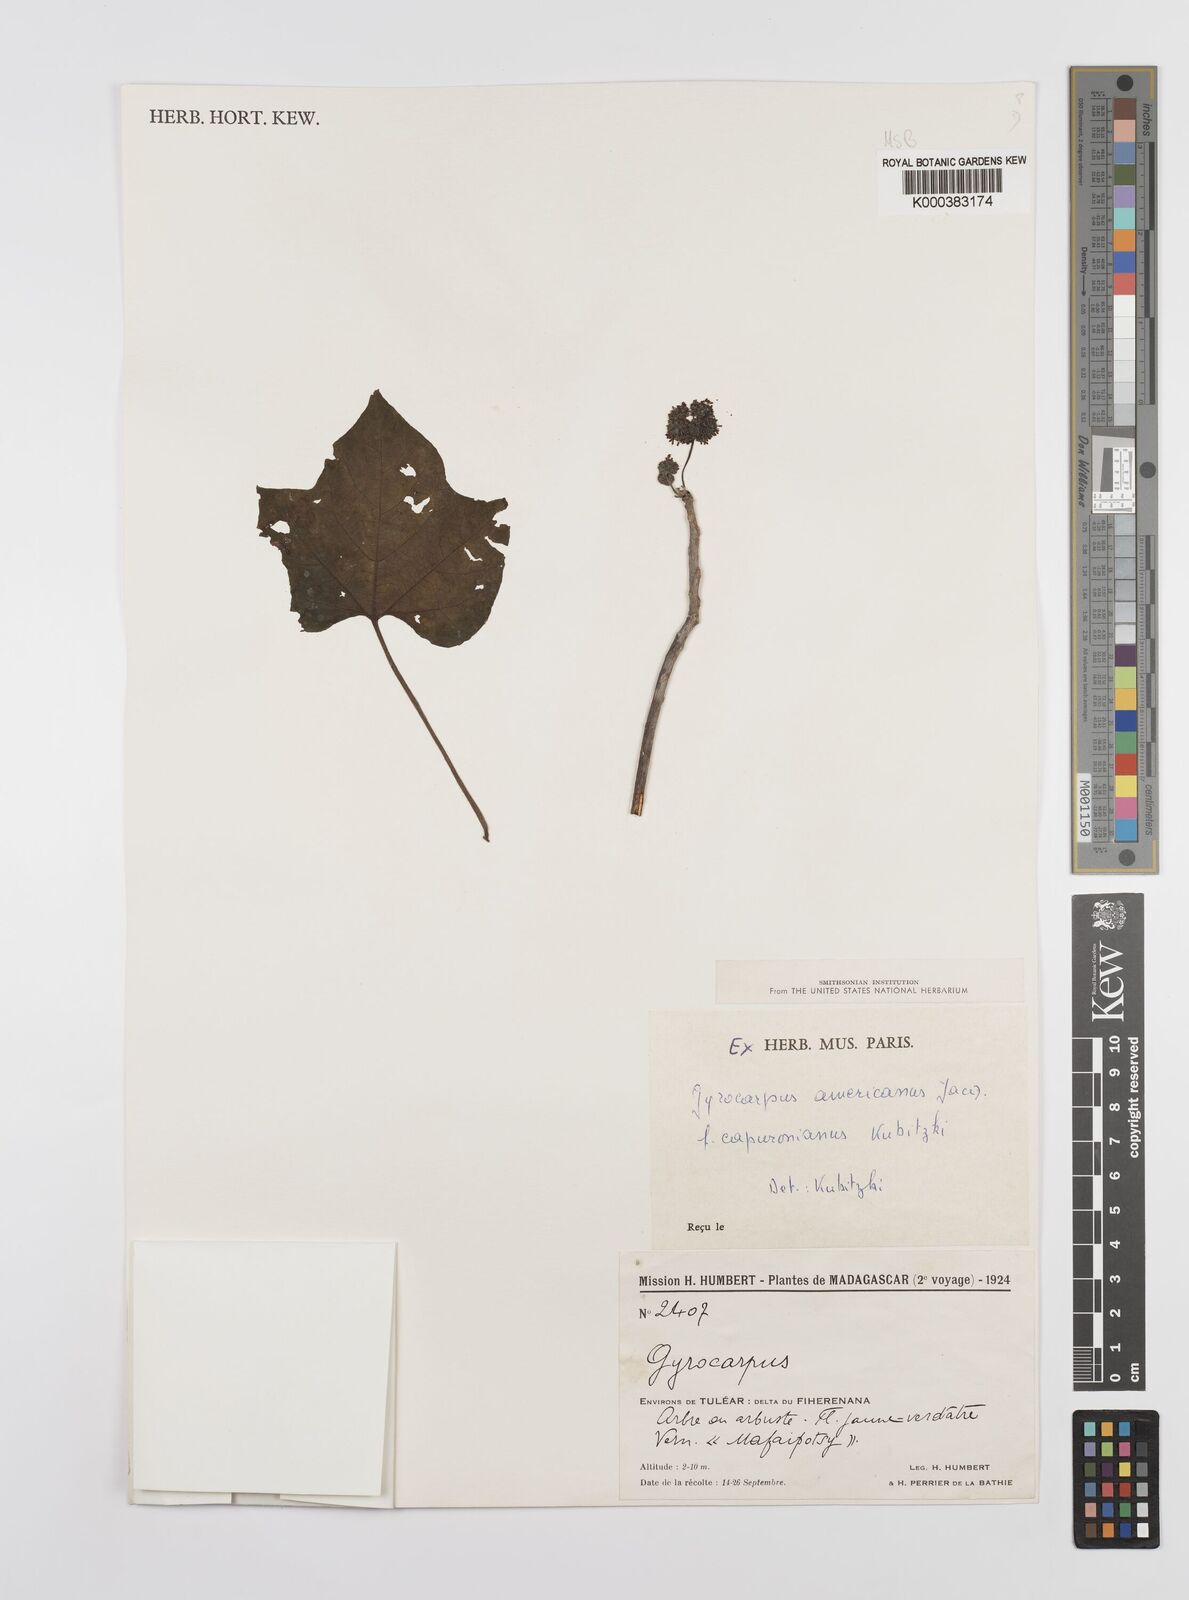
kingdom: Plantae
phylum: Tracheophyta
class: Magnoliopsida
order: Laurales
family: Hernandiaceae
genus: Gyrocarpus
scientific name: Gyrocarpus americanus
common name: Gyro damson
